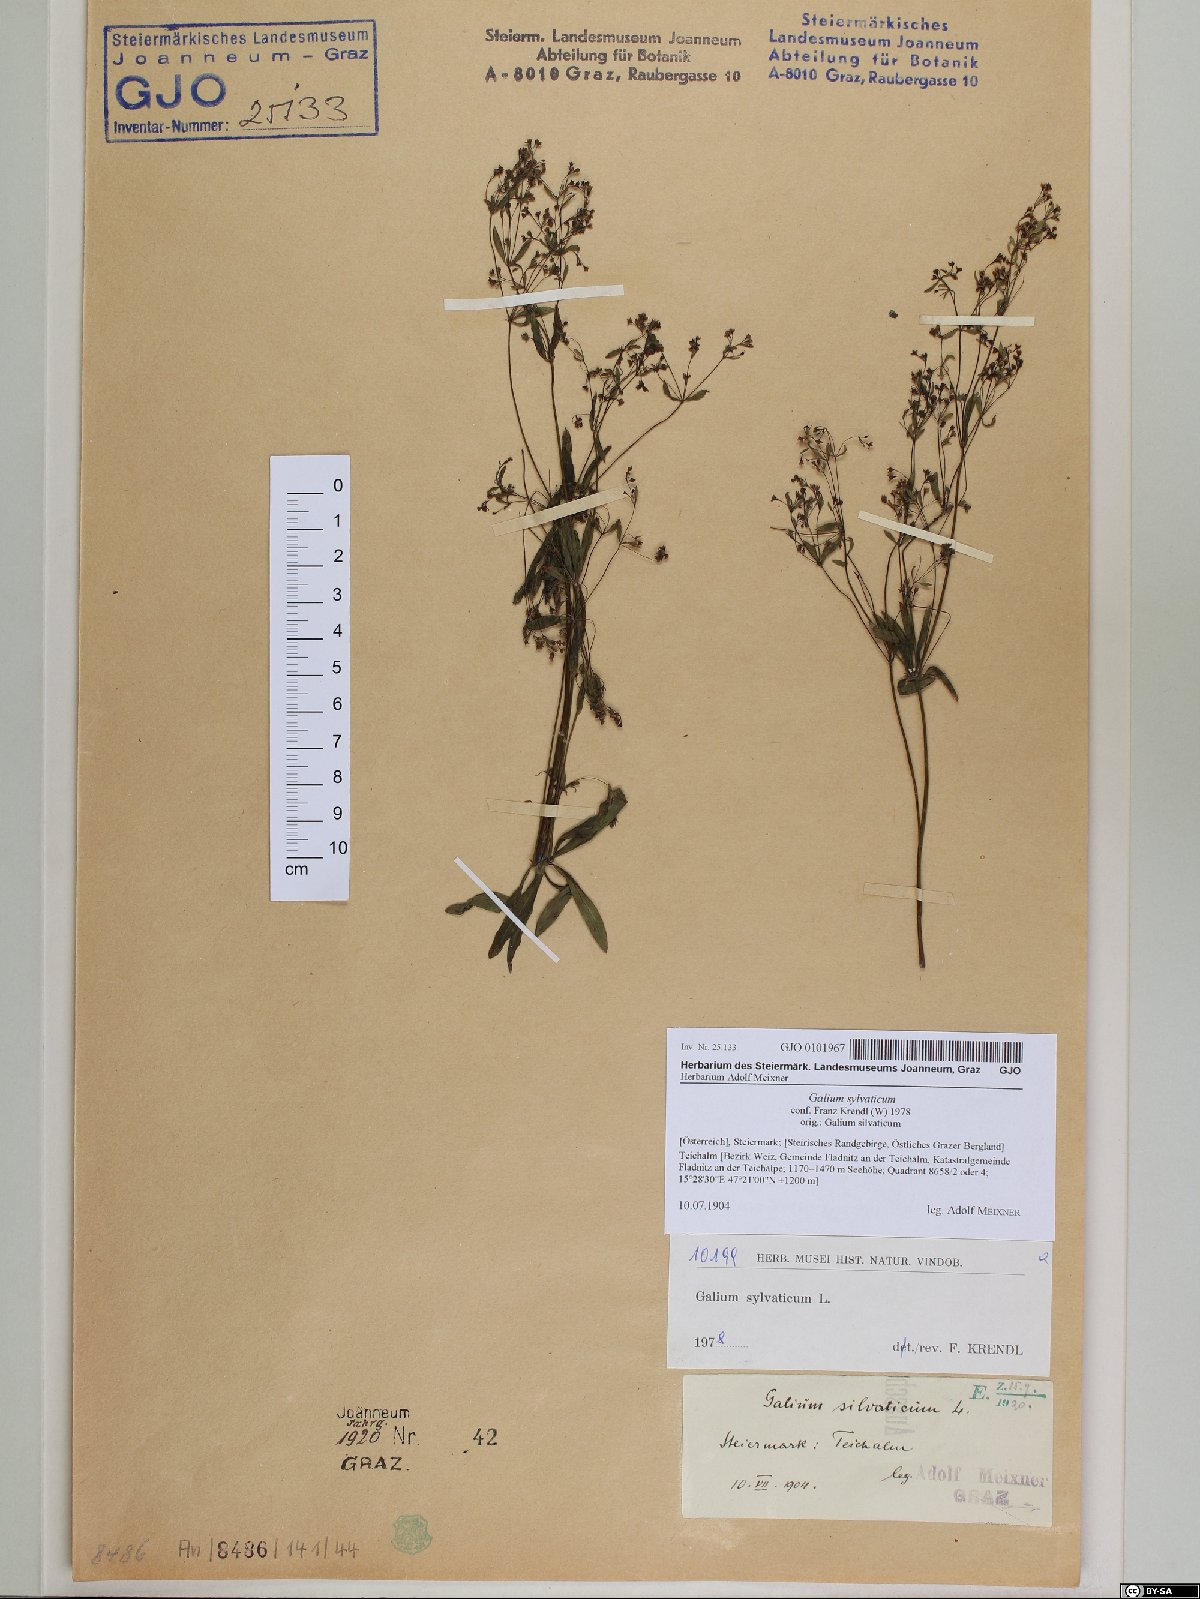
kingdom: Plantae
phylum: Tracheophyta
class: Magnoliopsida
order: Gentianales
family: Rubiaceae
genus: Galium
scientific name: Galium sylvaticum
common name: Wood bedstraw
